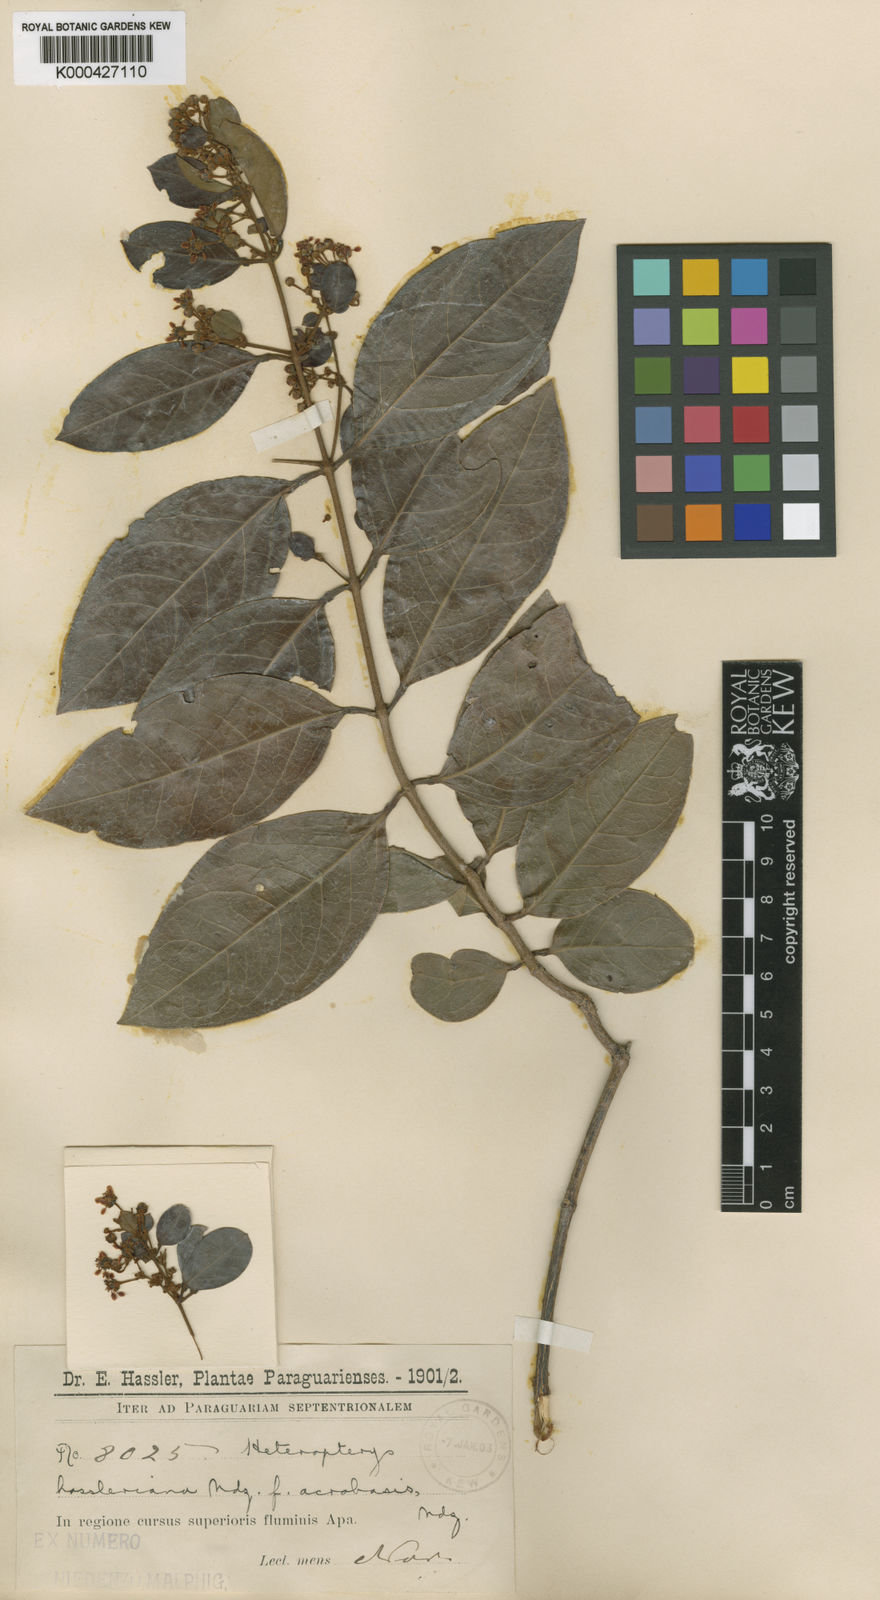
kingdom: Plantae
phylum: Tracheophyta
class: Magnoliopsida
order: Malpighiales
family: Malpighiaceae
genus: Heteropterys
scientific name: Heteropterys cochleosperma
